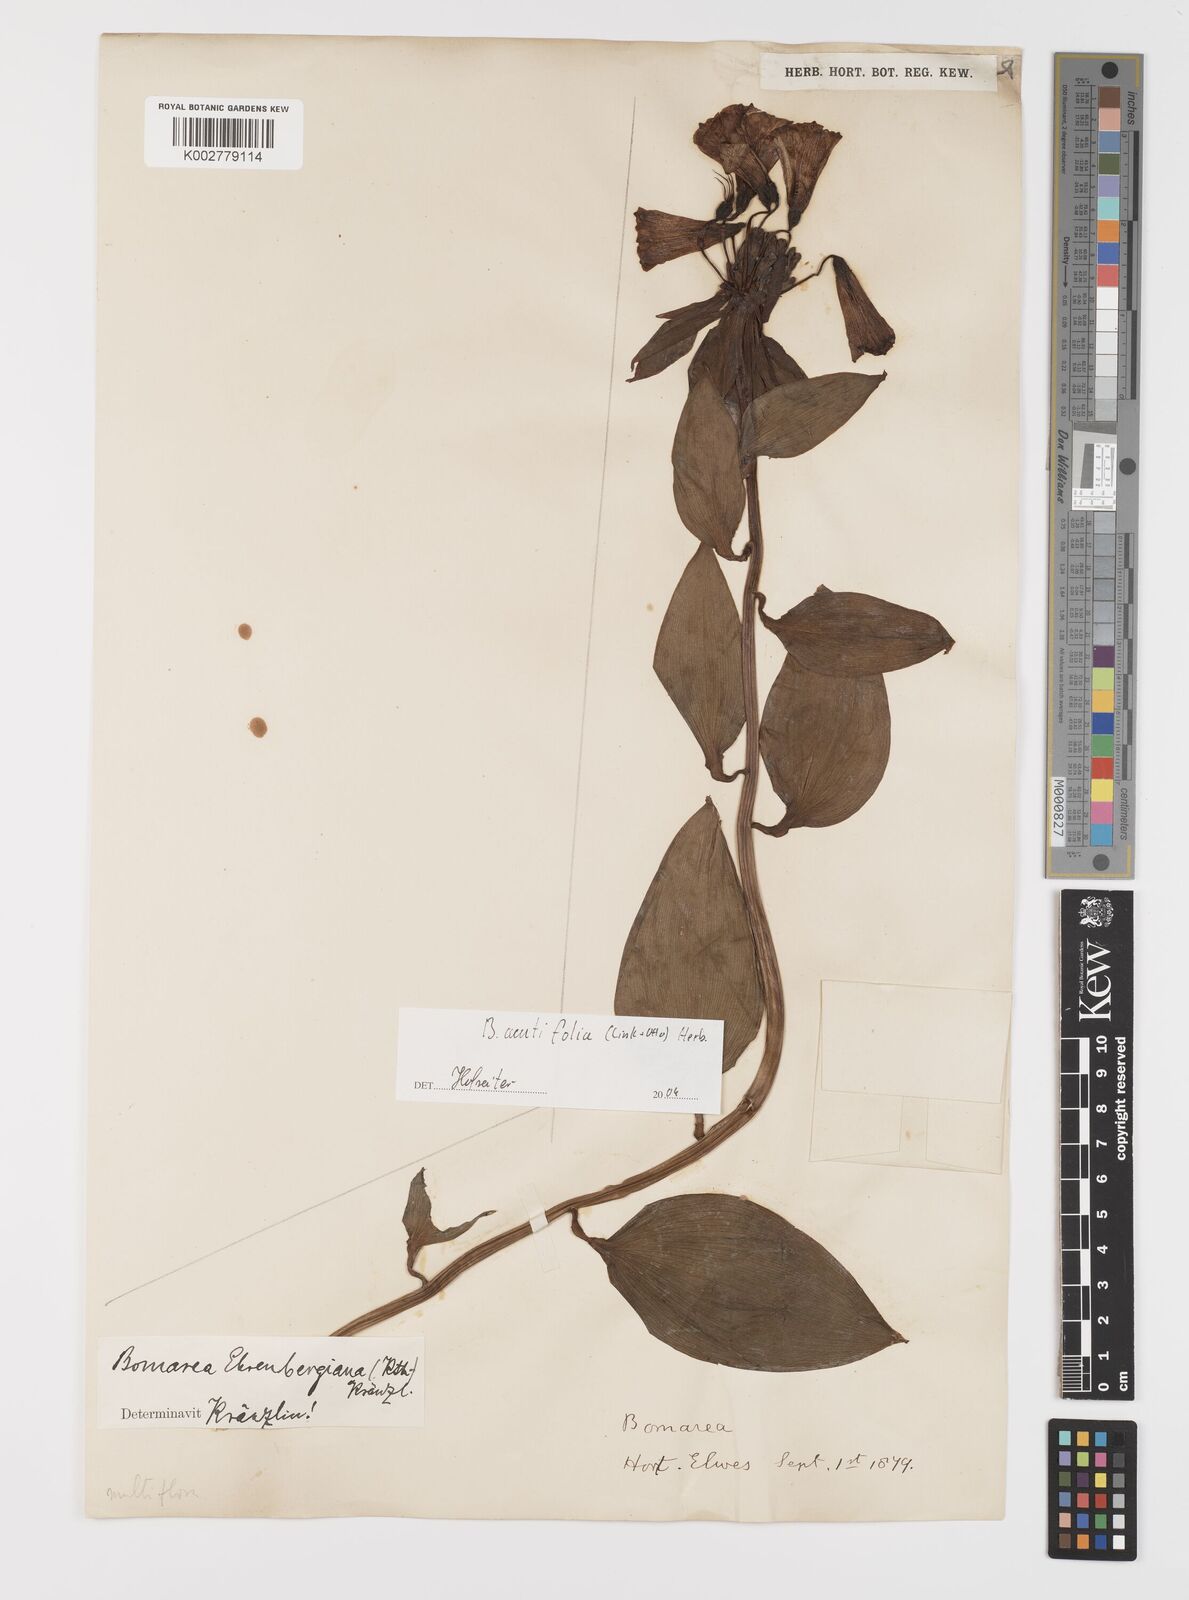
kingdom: Plantae
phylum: Tracheophyta
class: Liliopsida
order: Liliales
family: Alstroemeriaceae
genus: Bomarea
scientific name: Bomarea acutifolia
